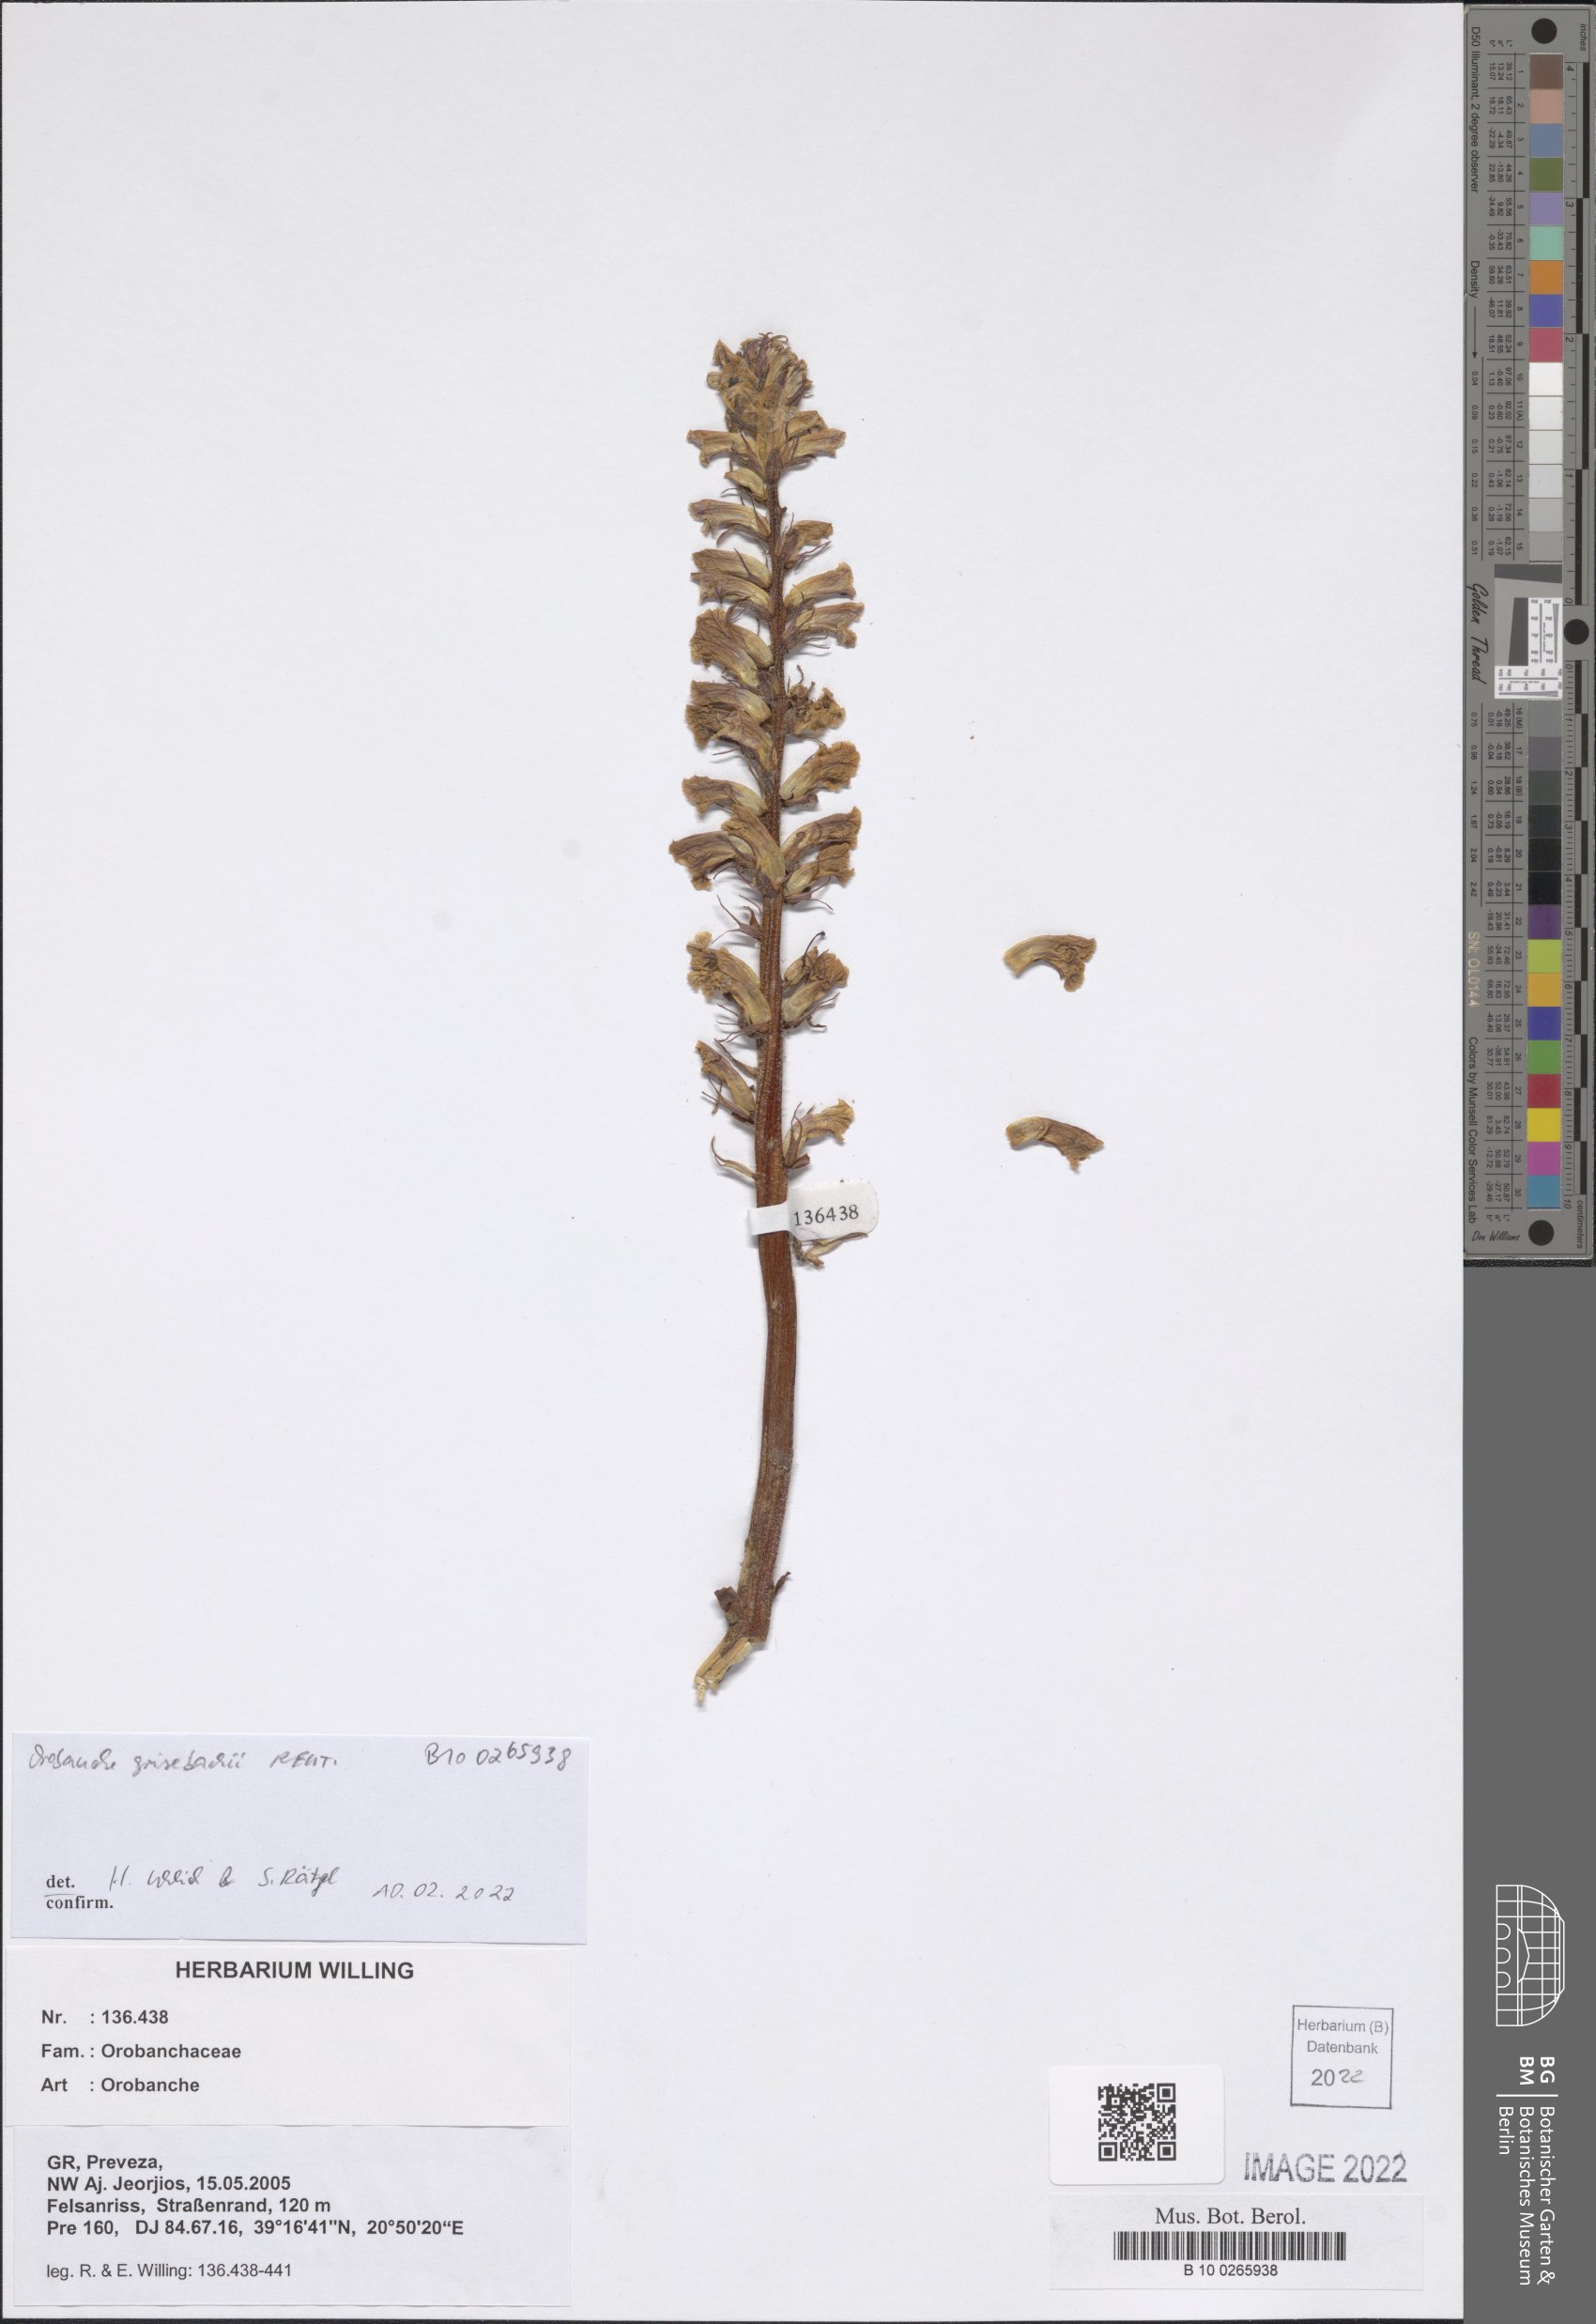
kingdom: Plantae
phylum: Tracheophyta
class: Magnoliopsida
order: Lamiales
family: Orobanchaceae
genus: Orobanche
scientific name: Orobanche grisebachii
